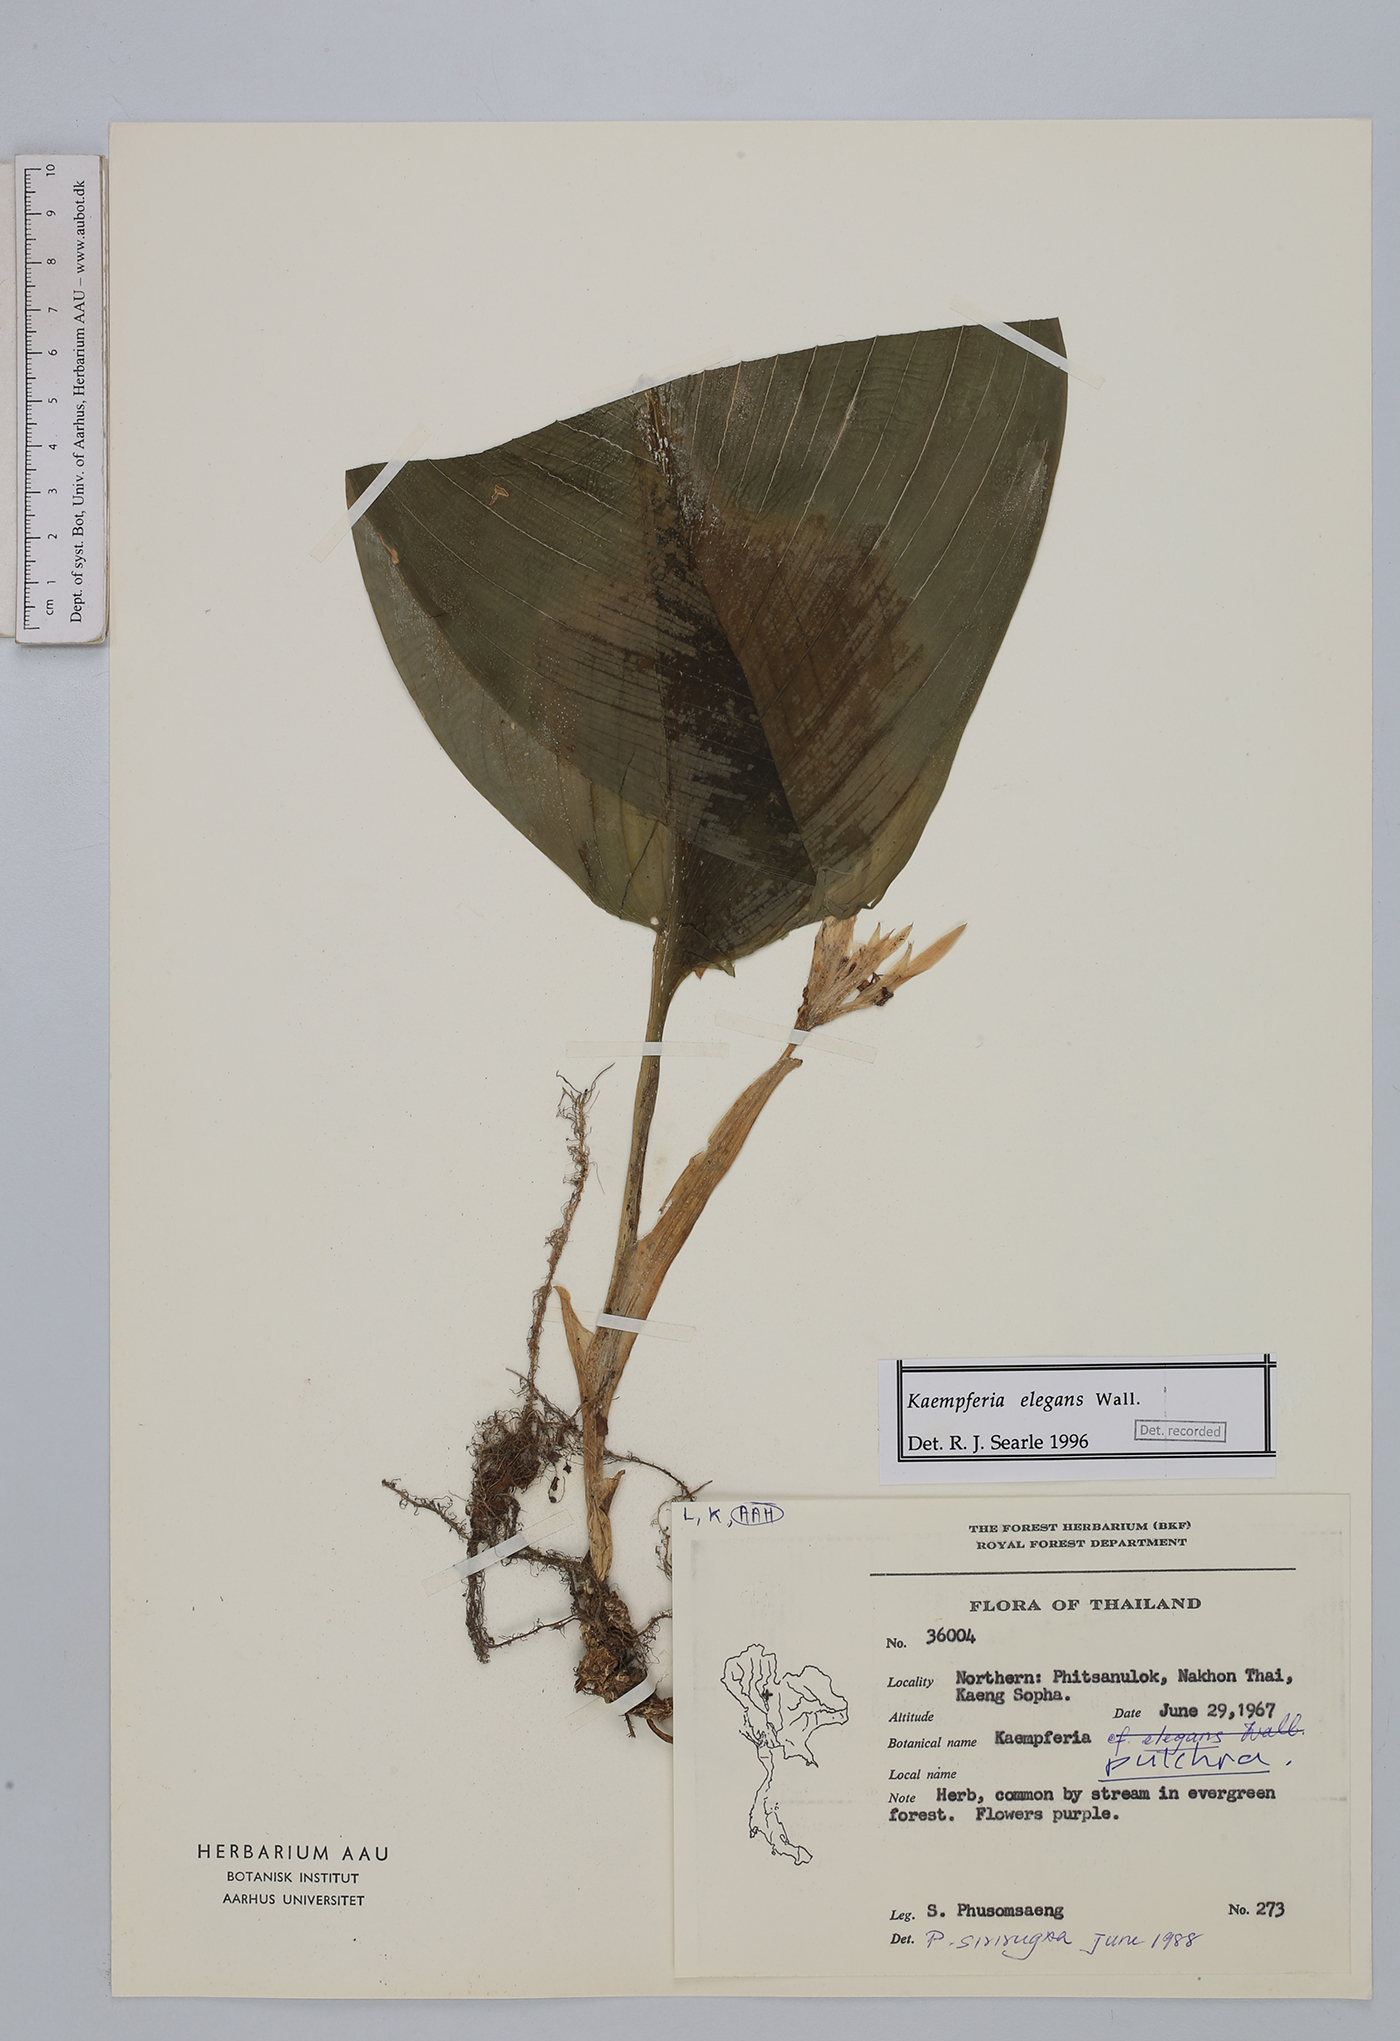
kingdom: Plantae
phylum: Tracheophyta
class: Liliopsida
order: Zingiberales
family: Zingiberaceae
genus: Kaempferia
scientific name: Kaempferia elegans
